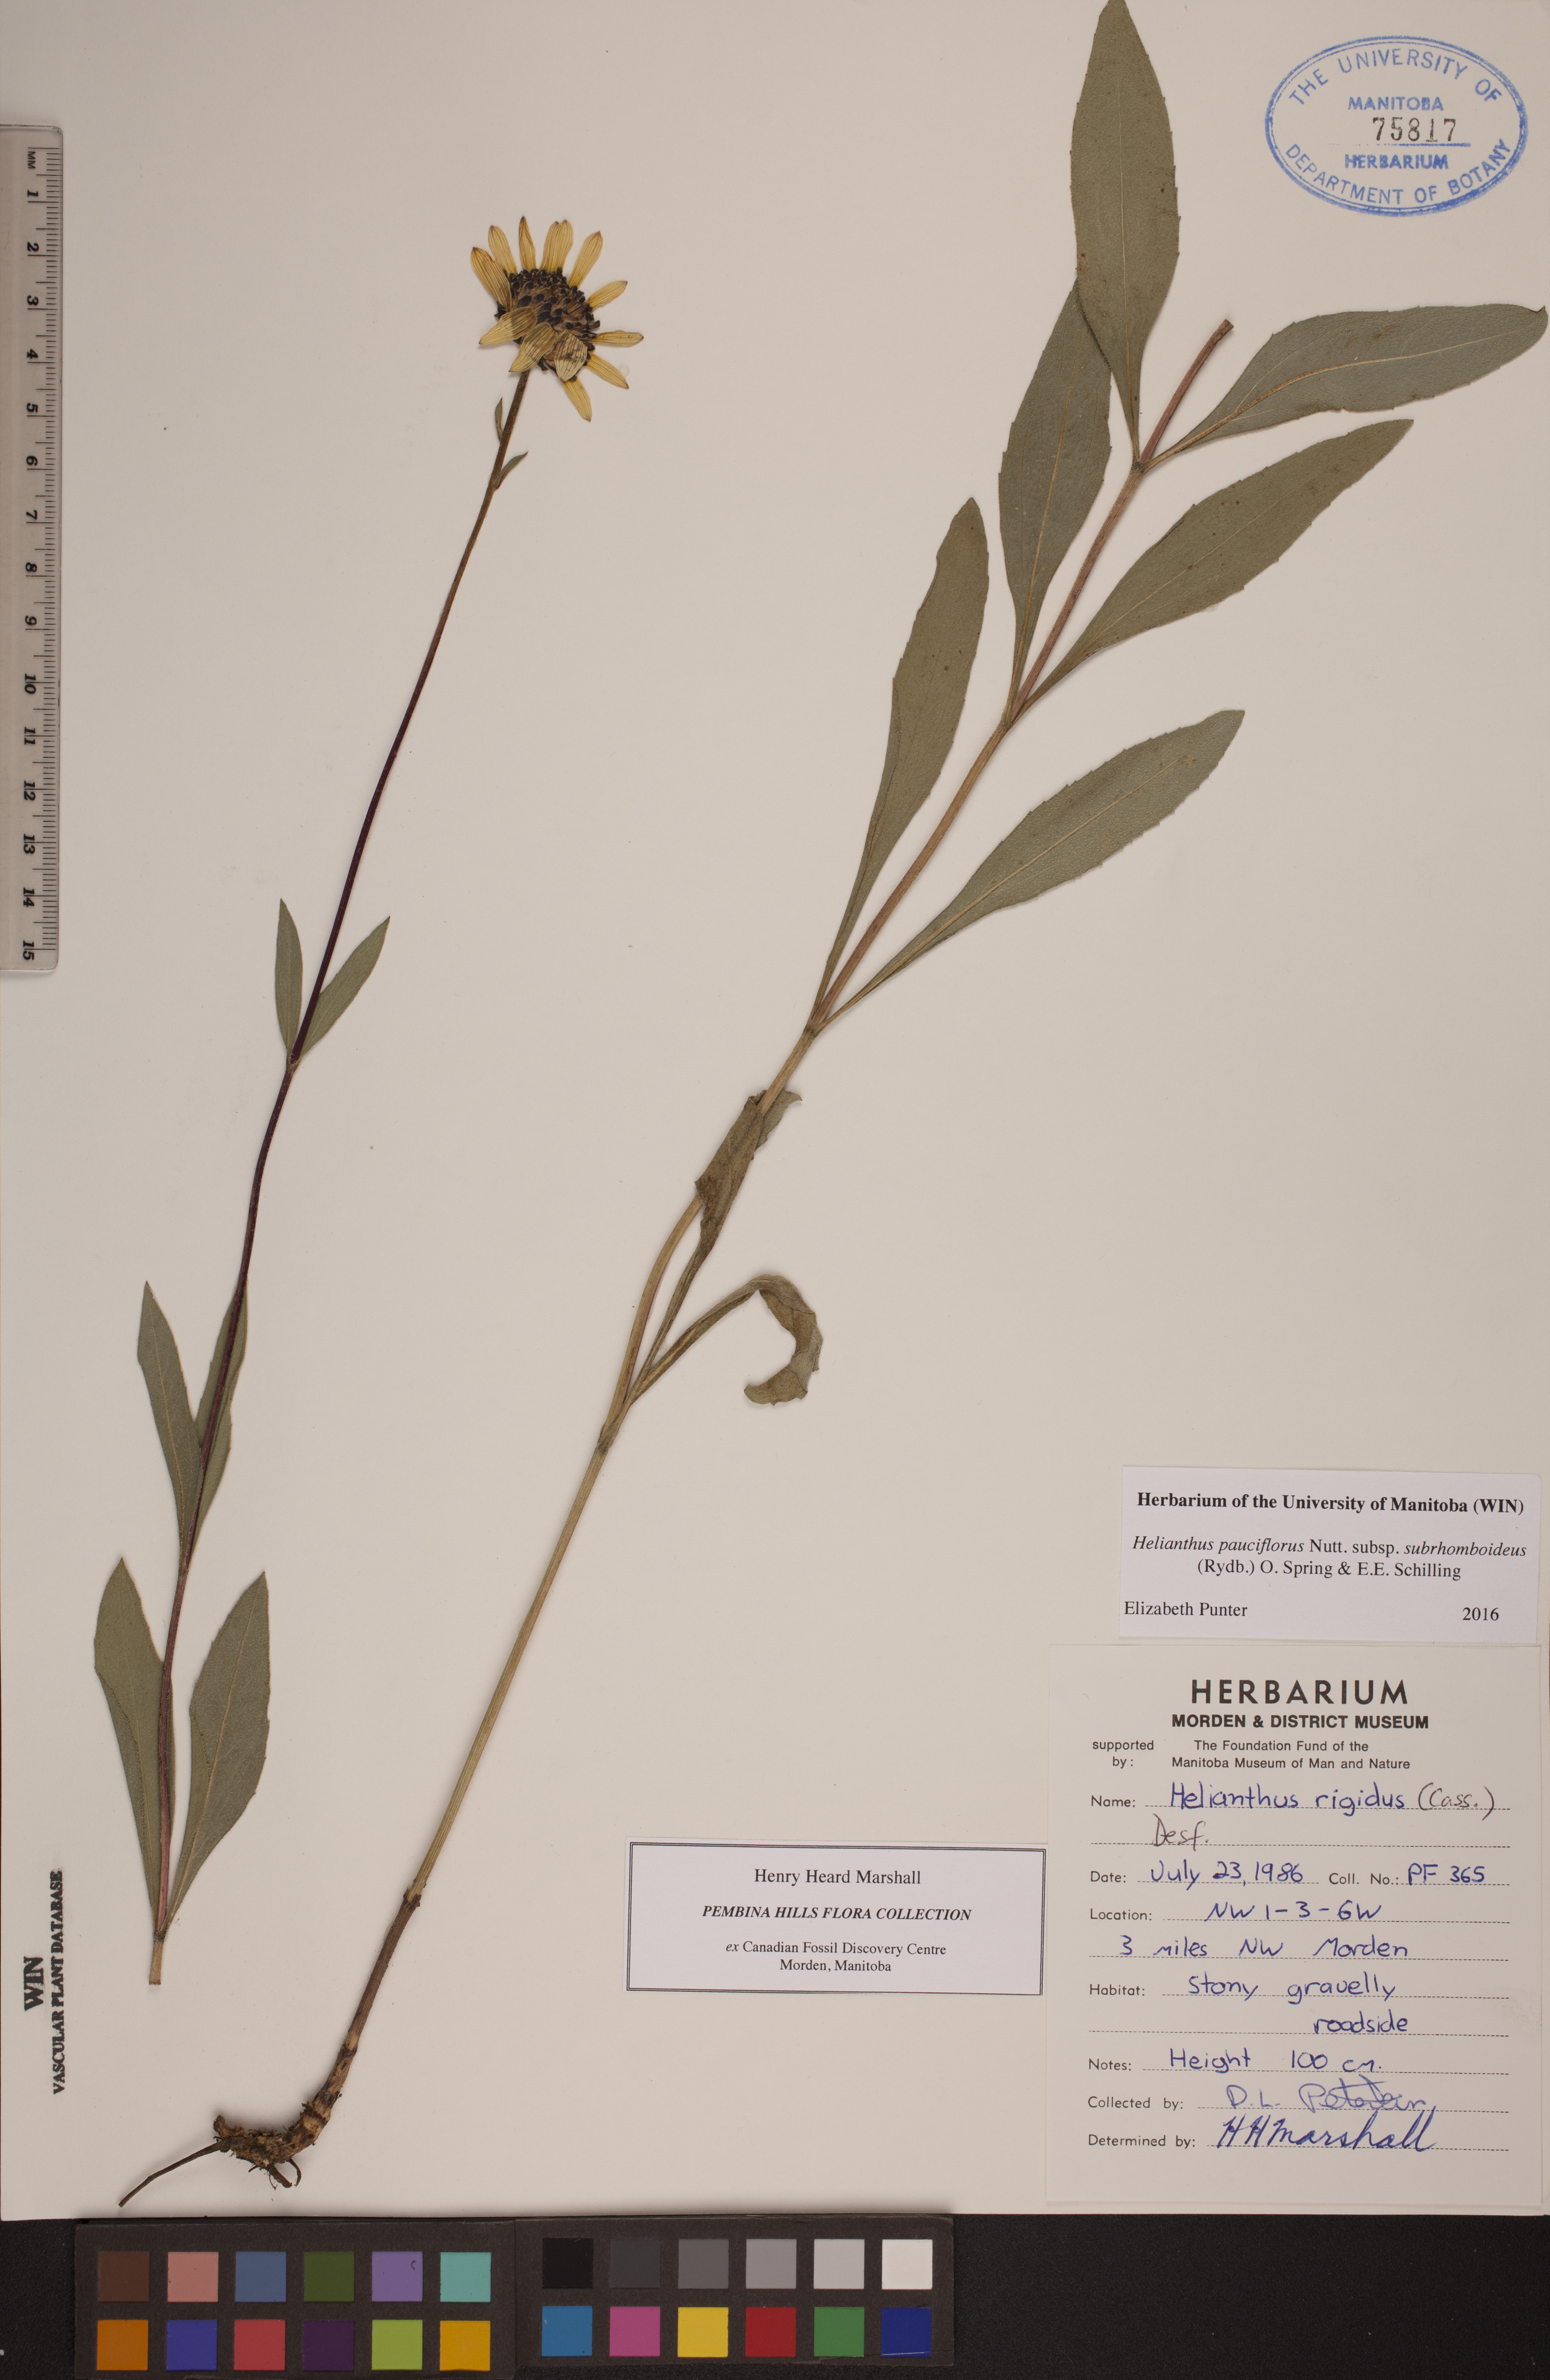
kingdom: Plantae
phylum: Tracheophyta
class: Magnoliopsida
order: Asterales
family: Asteraceae
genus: Helianthus
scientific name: Helianthus pauciflorus
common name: Stiff sunflower
